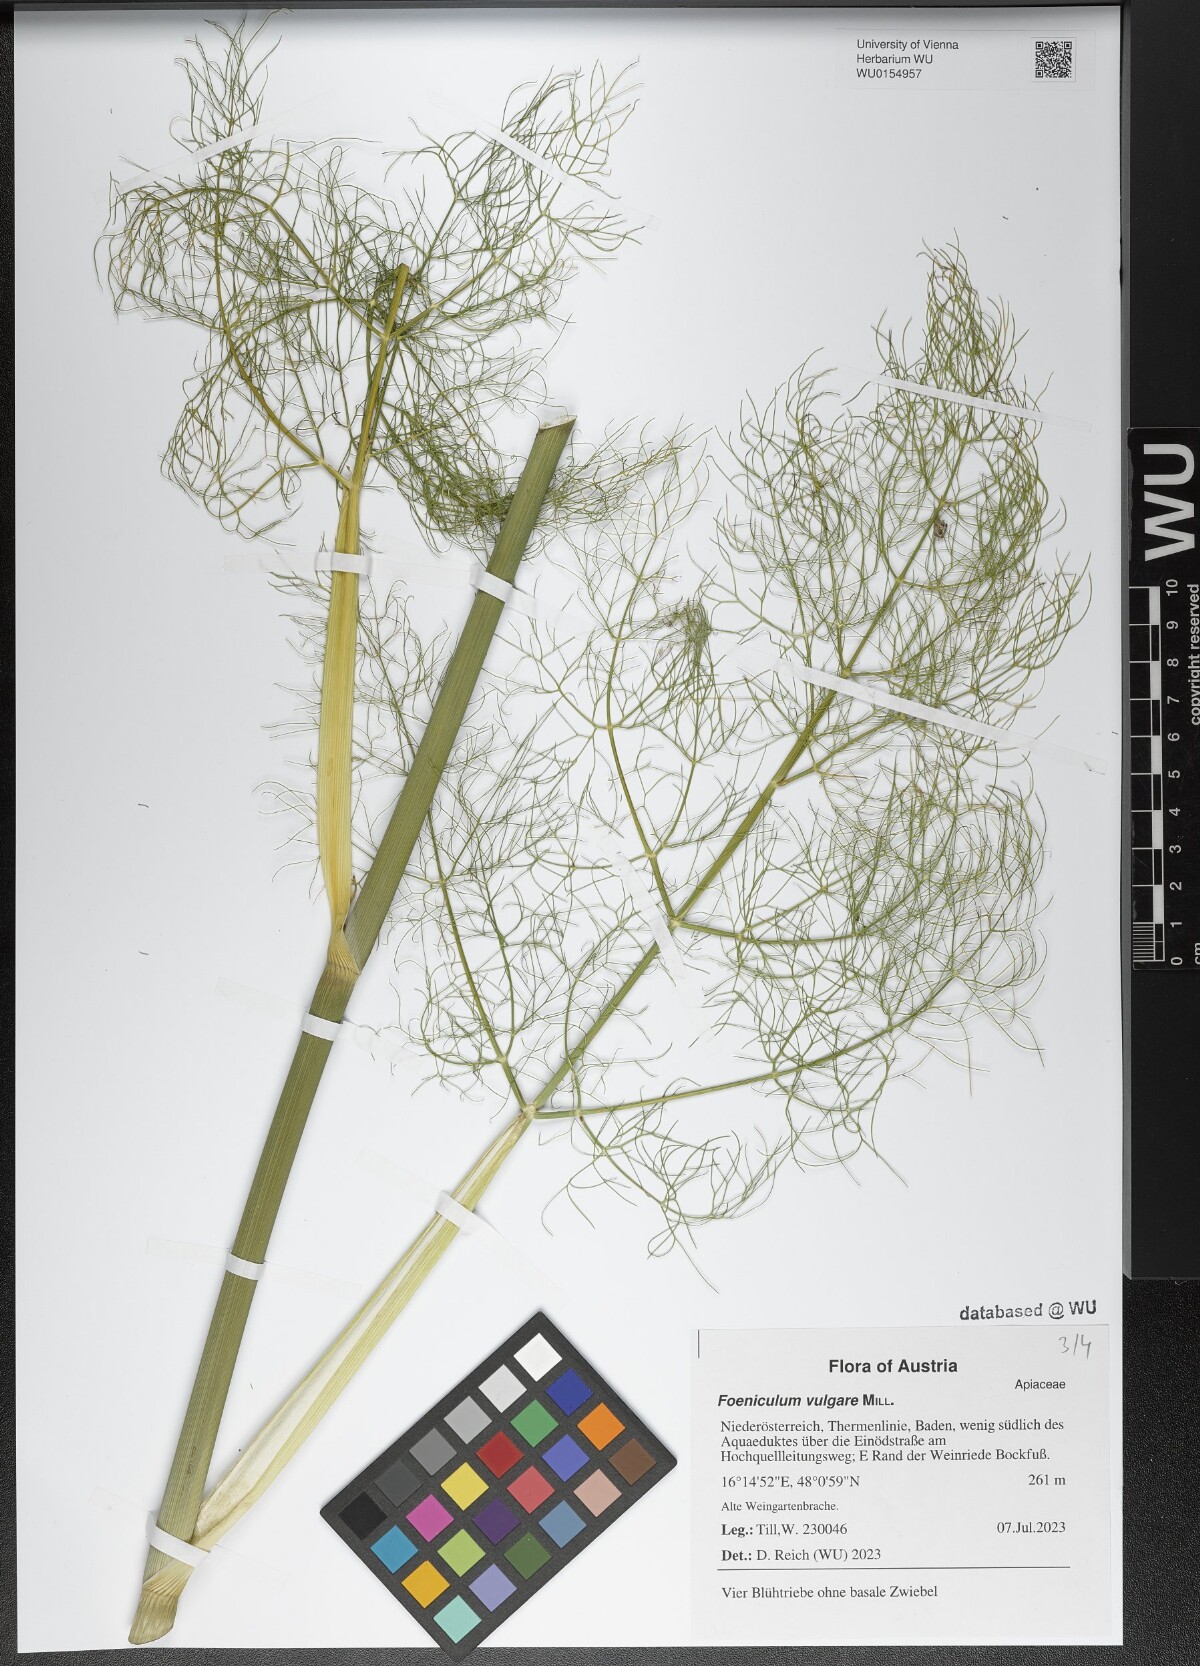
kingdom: Plantae
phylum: Tracheophyta
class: Magnoliopsida
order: Apiales
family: Apiaceae
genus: Foeniculum
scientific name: Foeniculum vulgare
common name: Fennel
